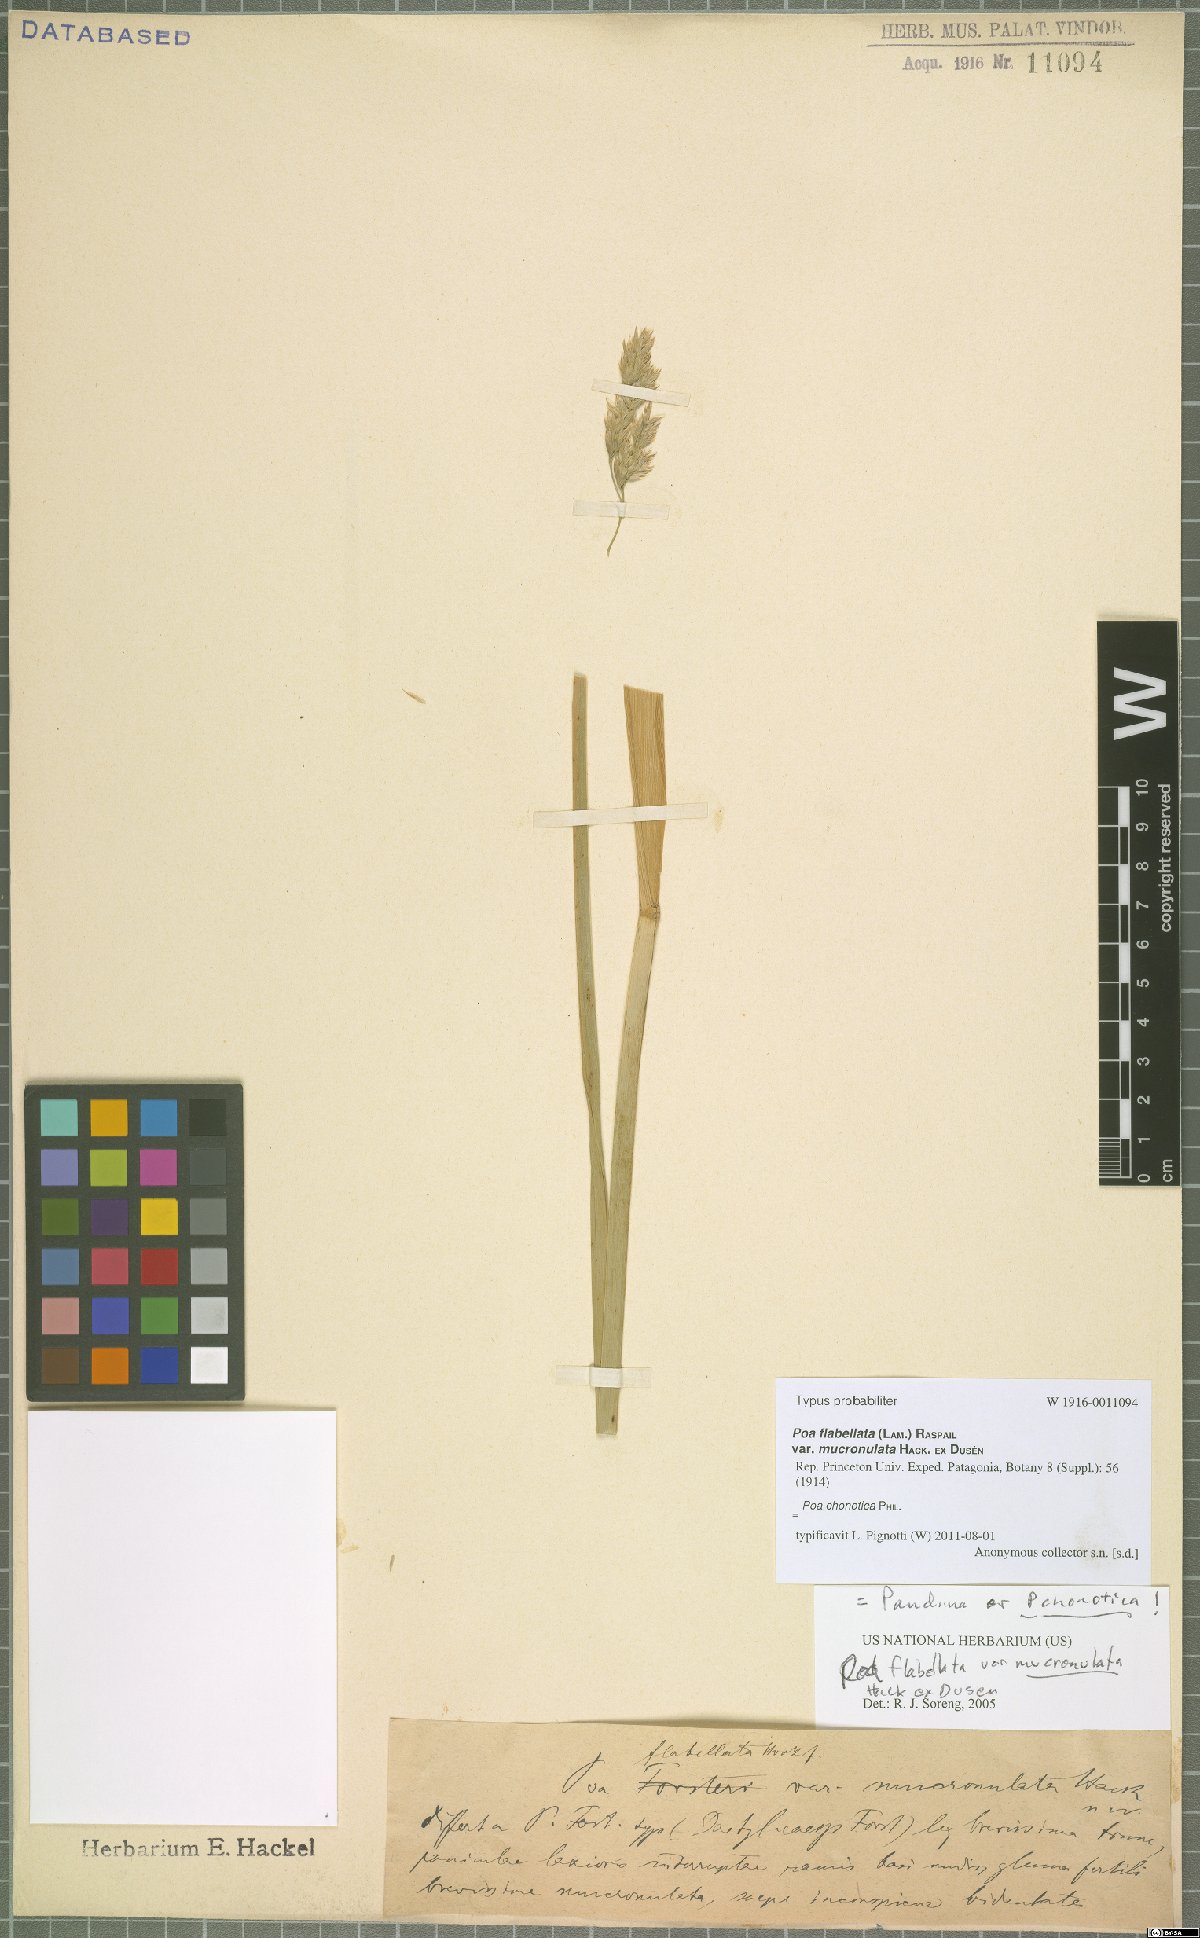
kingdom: Plantae
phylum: Tracheophyta
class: Liliopsida
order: Poales
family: Poaceae
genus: Nicoraepoa
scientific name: Nicoraepoa chonotica
